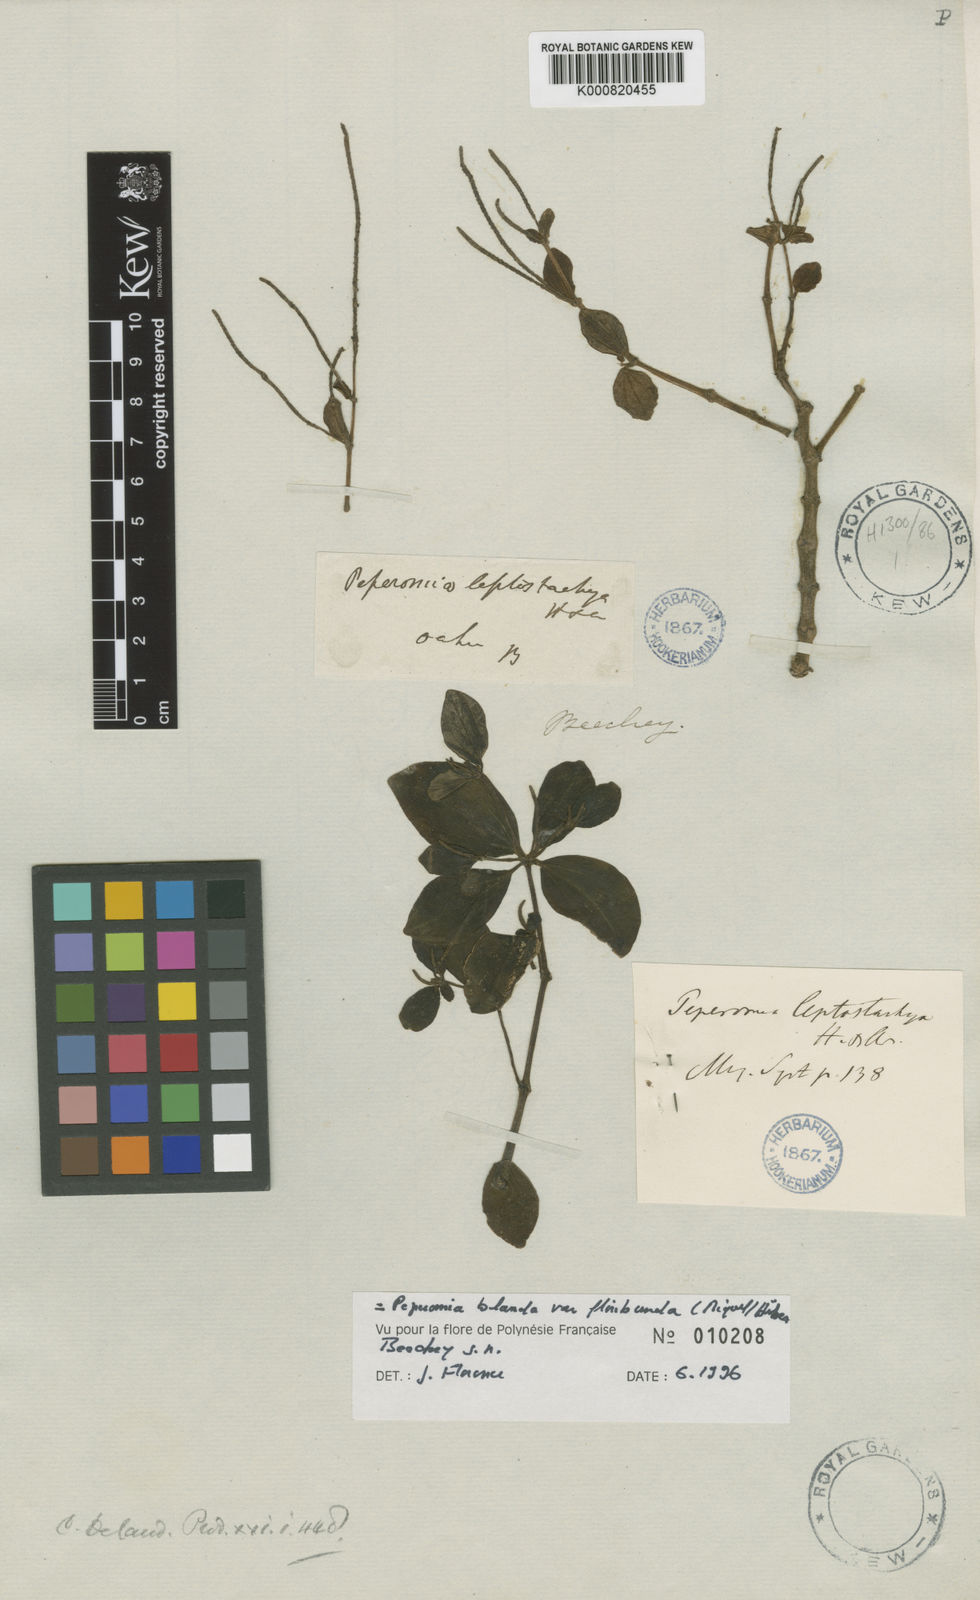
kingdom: Plantae
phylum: Tracheophyta
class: Magnoliopsida
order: Piperales
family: Piperaceae
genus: Peperomia
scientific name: Peperomia leptostachya
